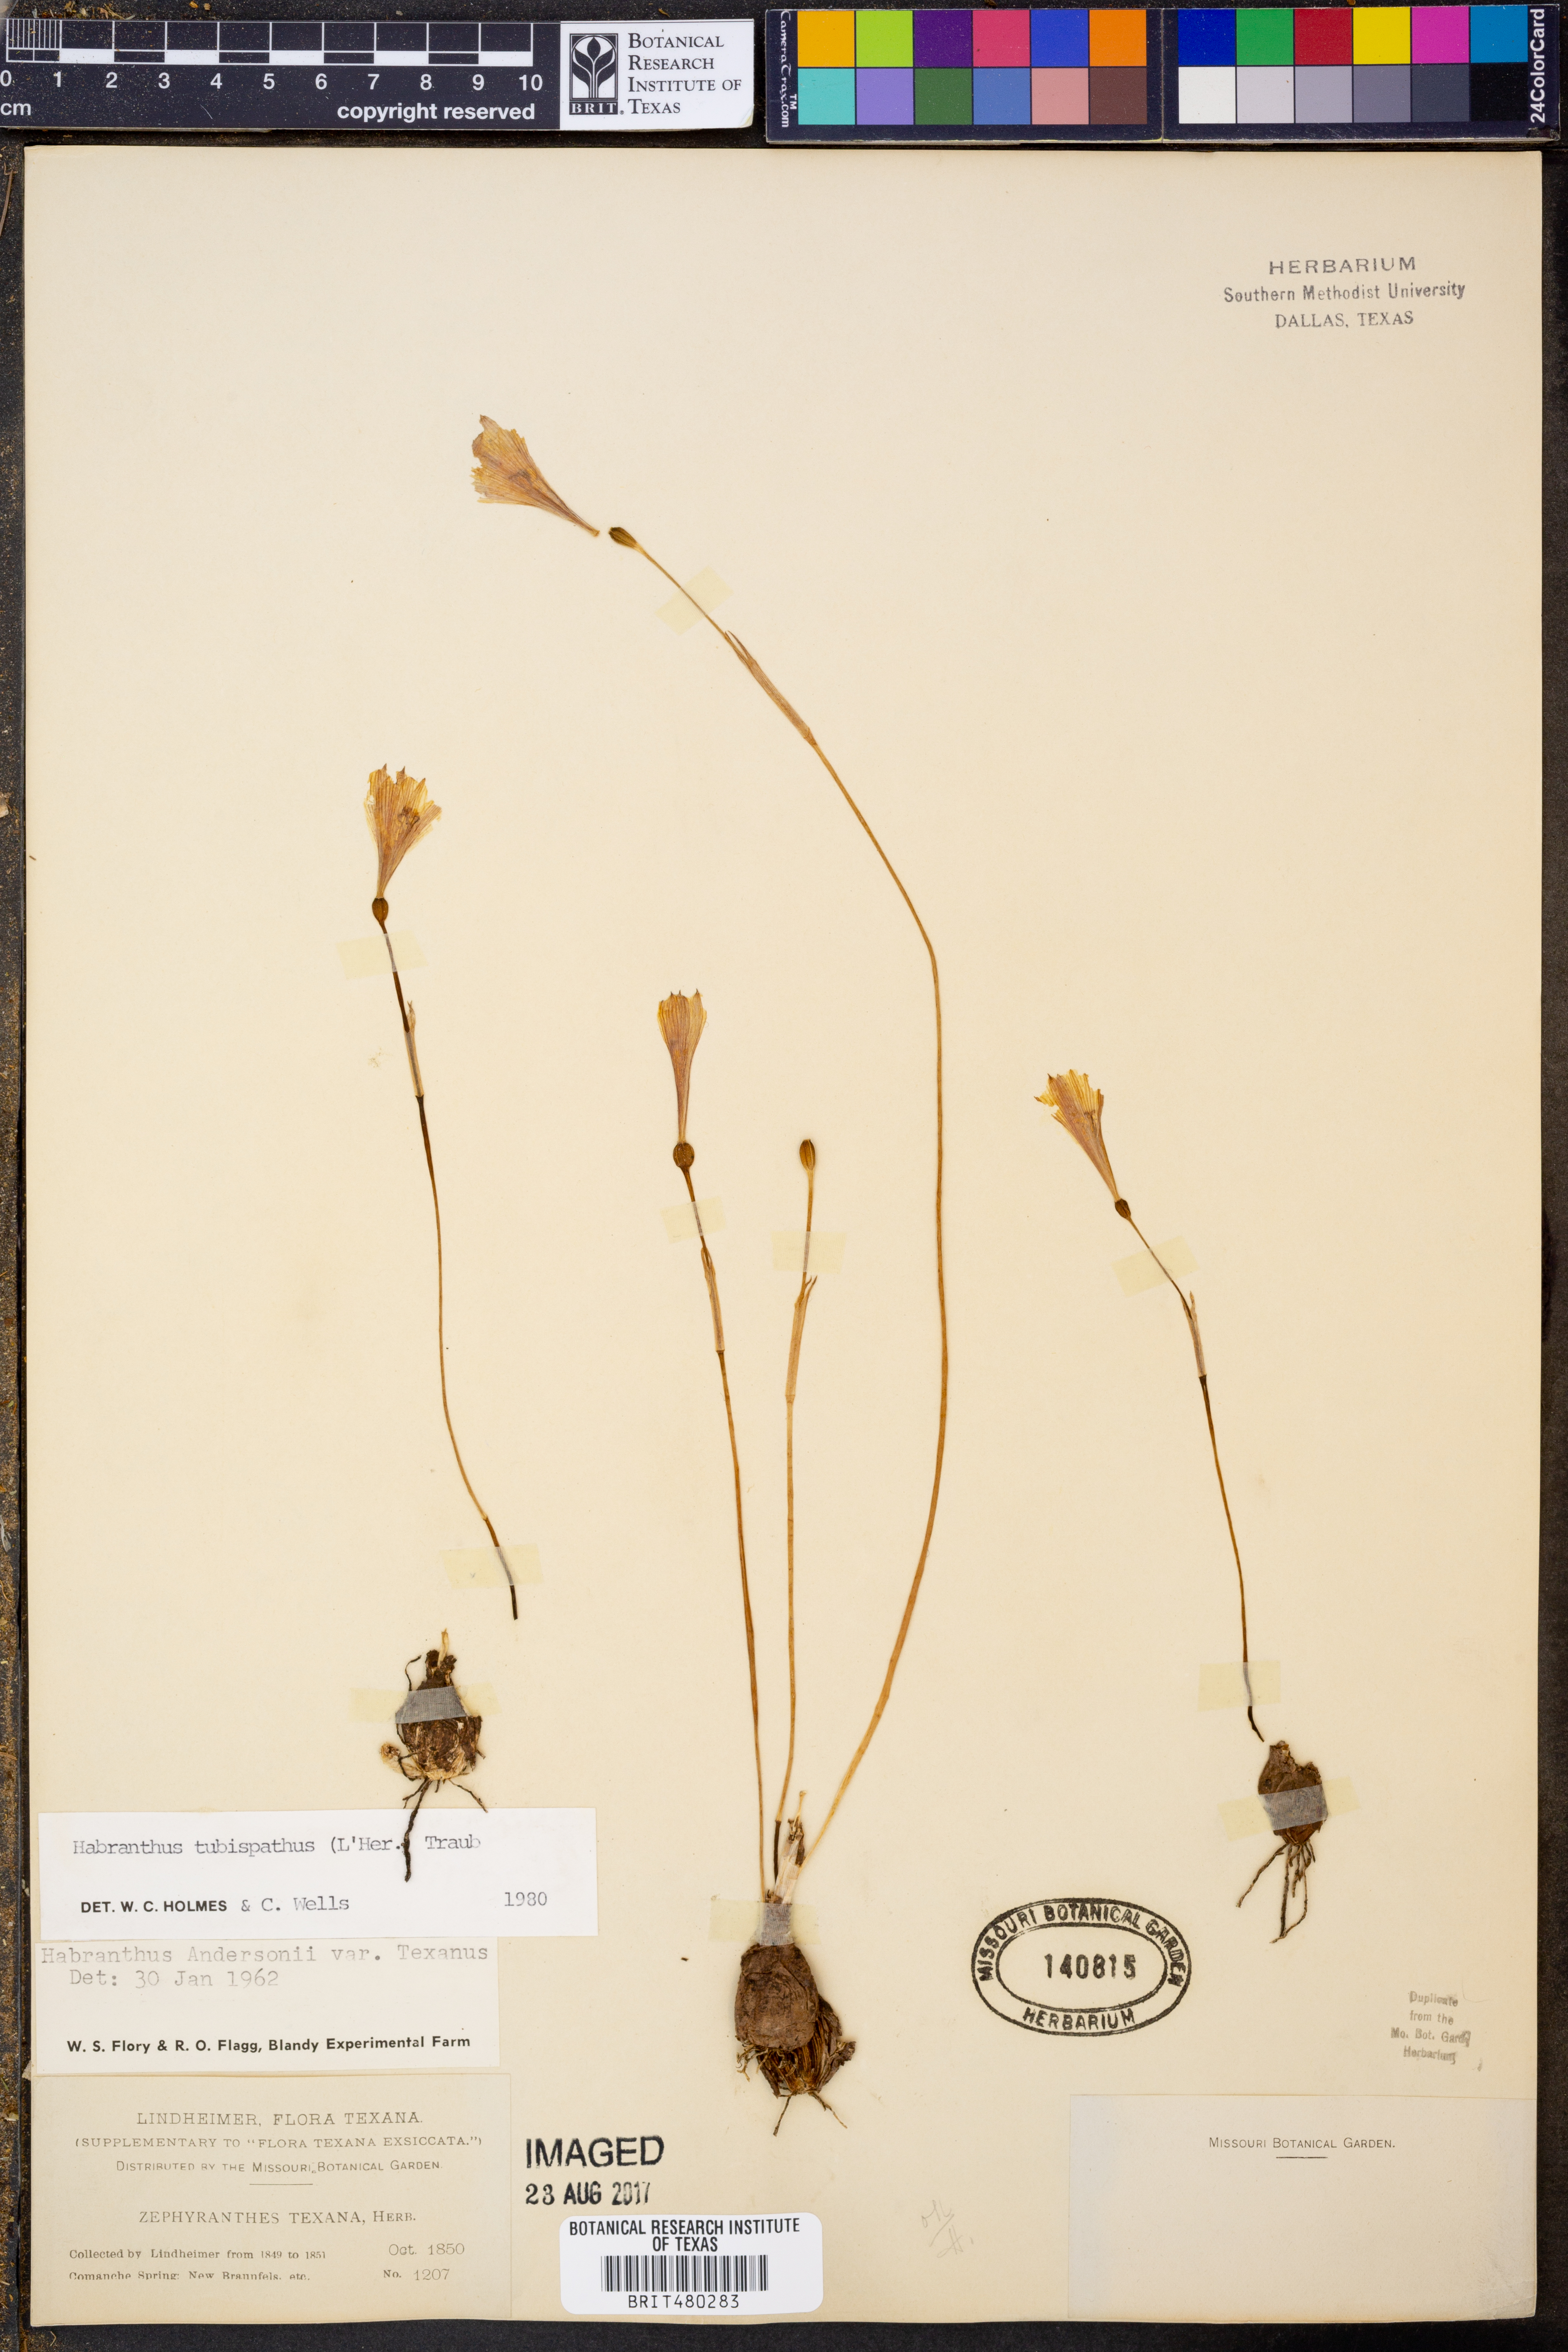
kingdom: Plantae
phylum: Tracheophyta
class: Liliopsida
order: Asparagales
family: Amaryllidaceae
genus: Zephyranthes
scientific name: Zephyranthes tubispatha
